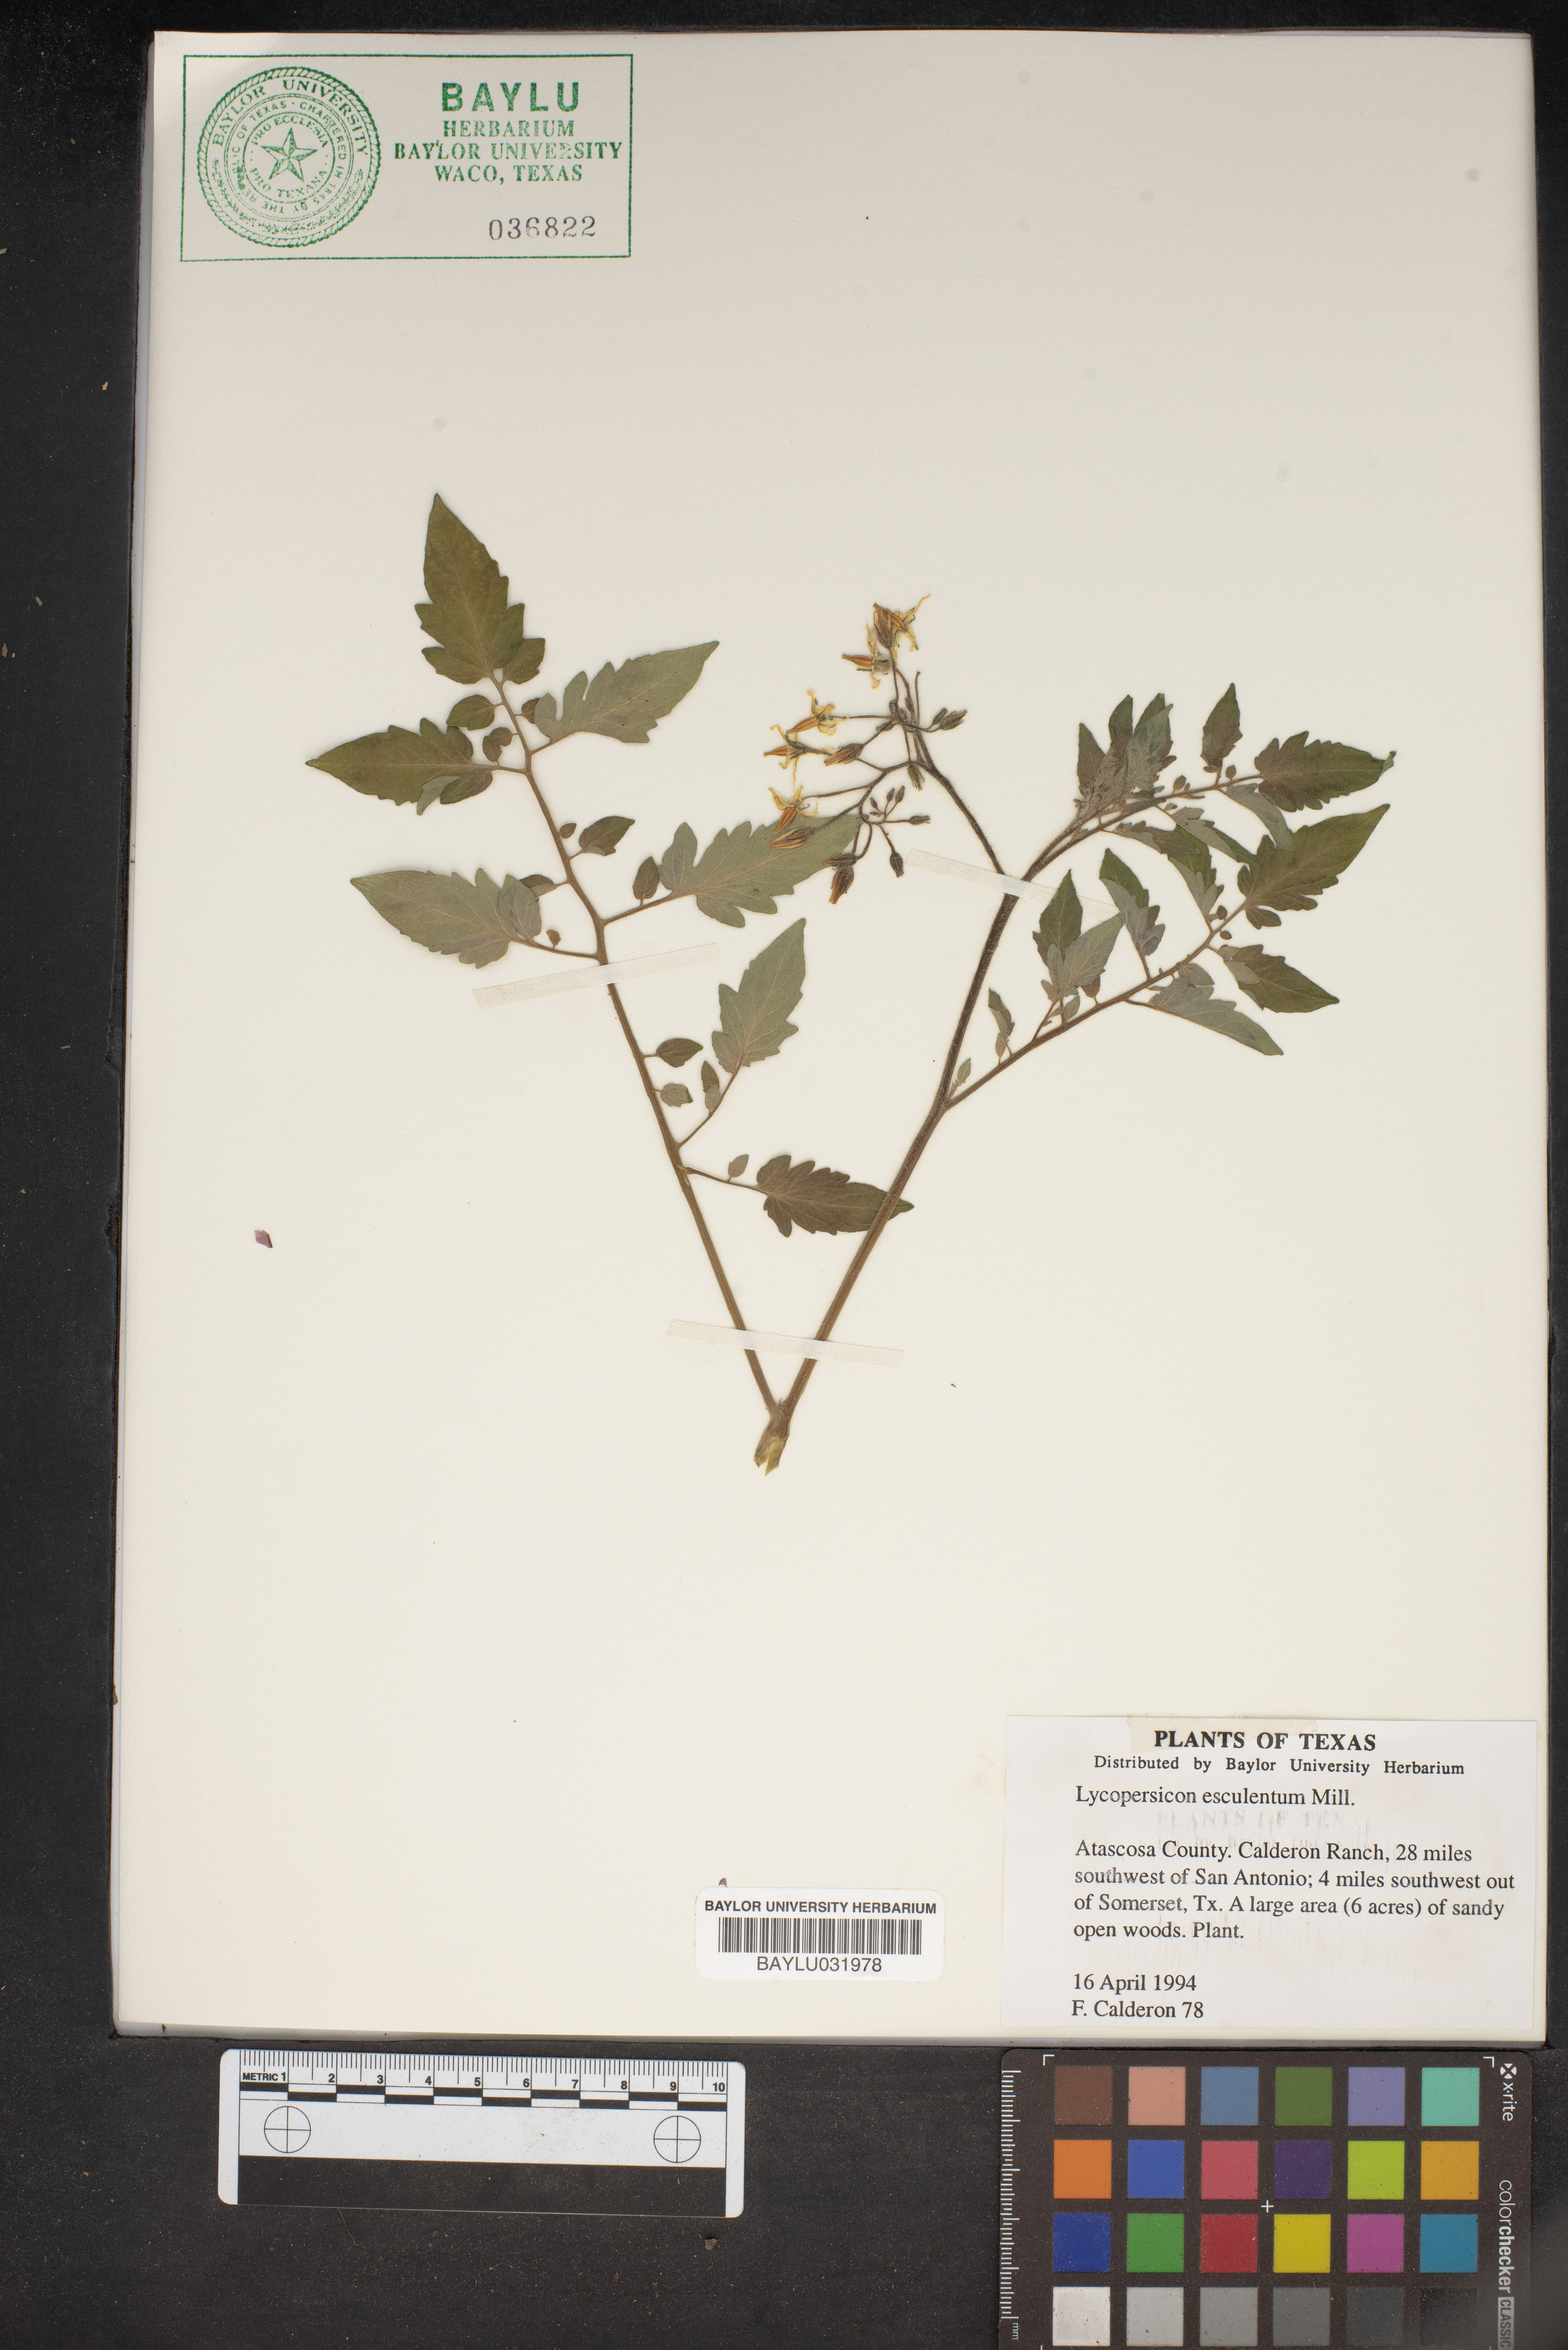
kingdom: Plantae
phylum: Tracheophyta
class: Magnoliopsida
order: Solanales
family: Solanaceae
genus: Solanum
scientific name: Solanum
